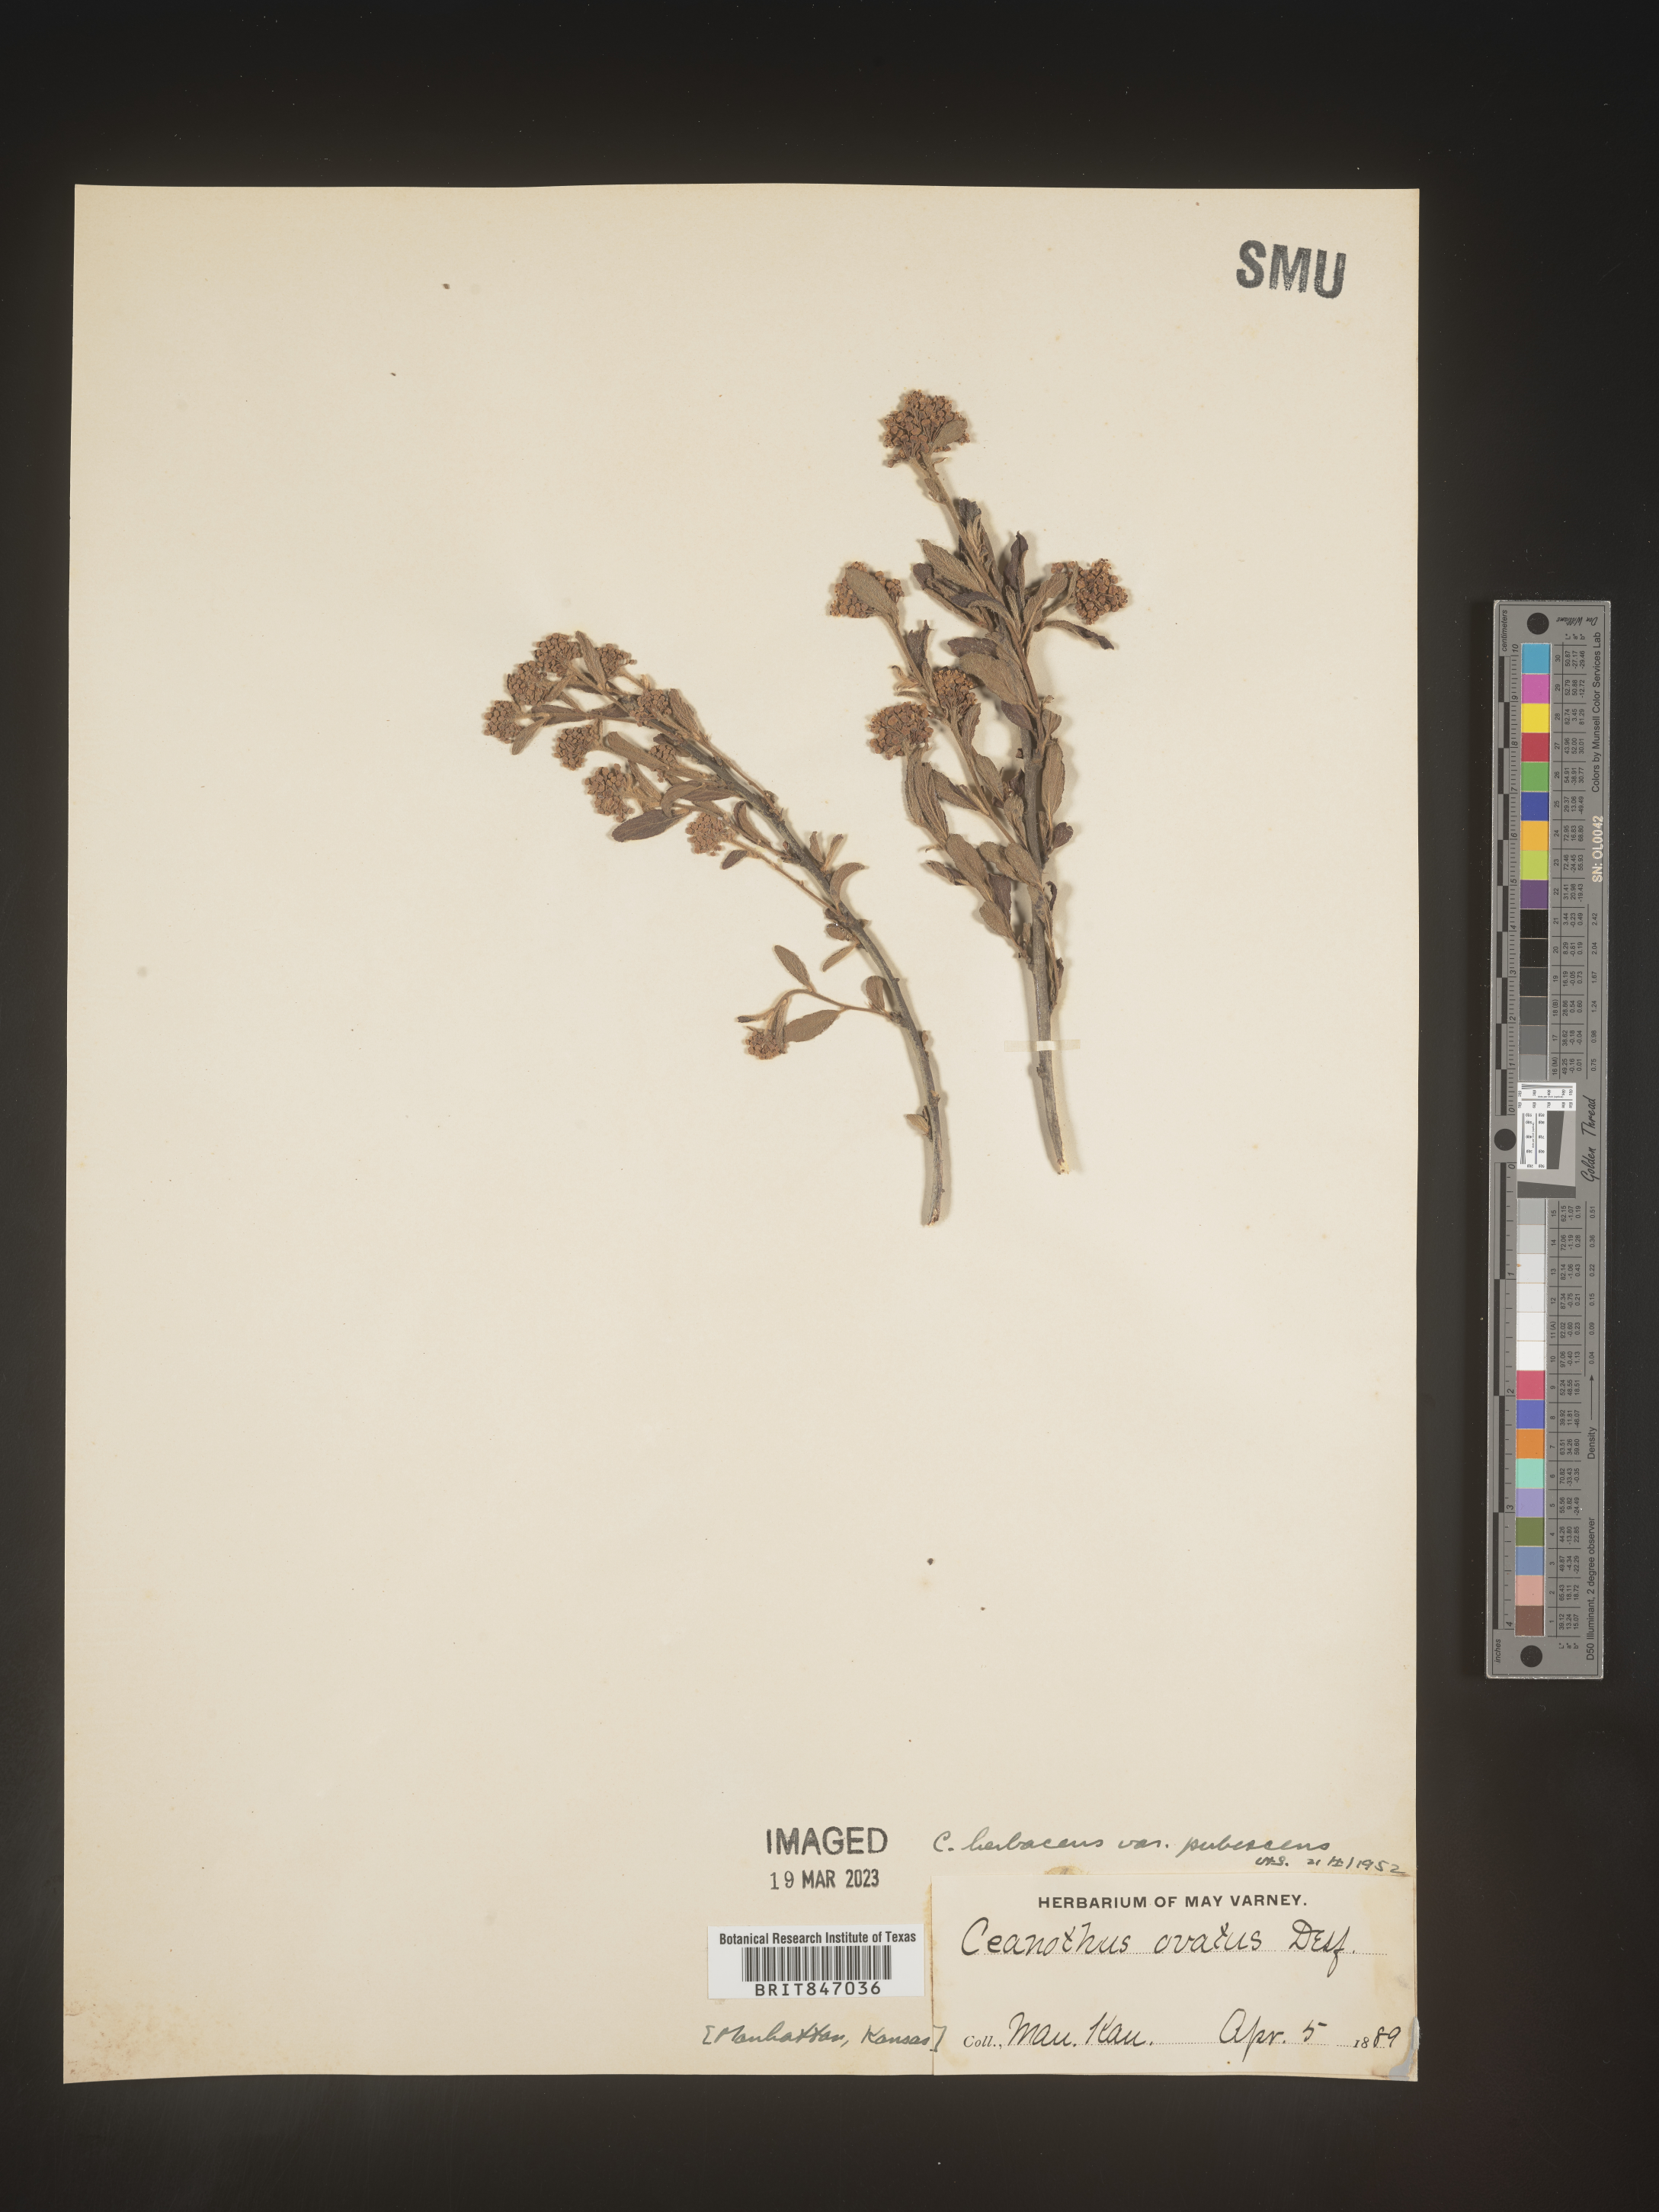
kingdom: Plantae
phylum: Tracheophyta
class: Magnoliopsida
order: Rosales
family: Rhamnaceae
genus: Ceanothus
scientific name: Ceanothus herbaceus
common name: Inland ceanothus
